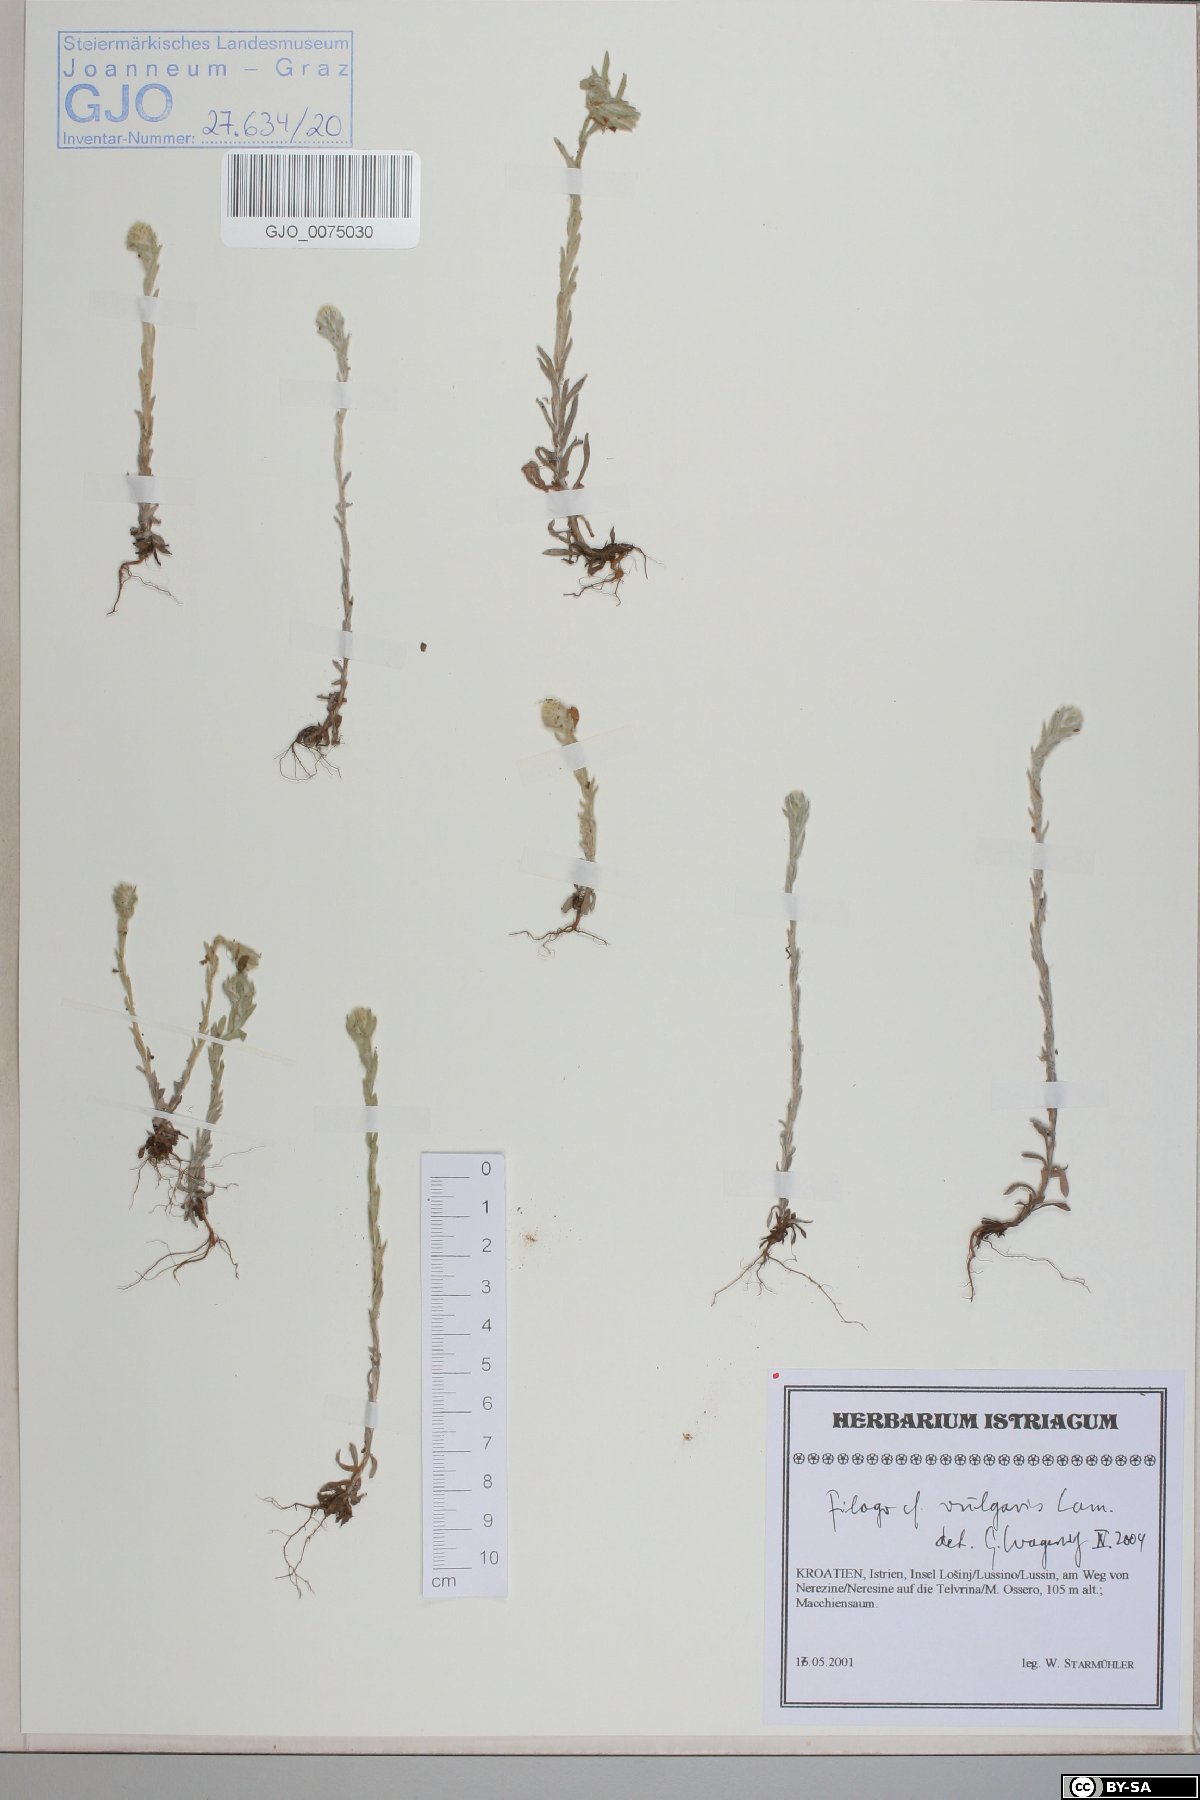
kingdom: Plantae
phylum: Tracheophyta
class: Magnoliopsida
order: Asterales
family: Asteraceae
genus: Filago
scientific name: Filago germanica
